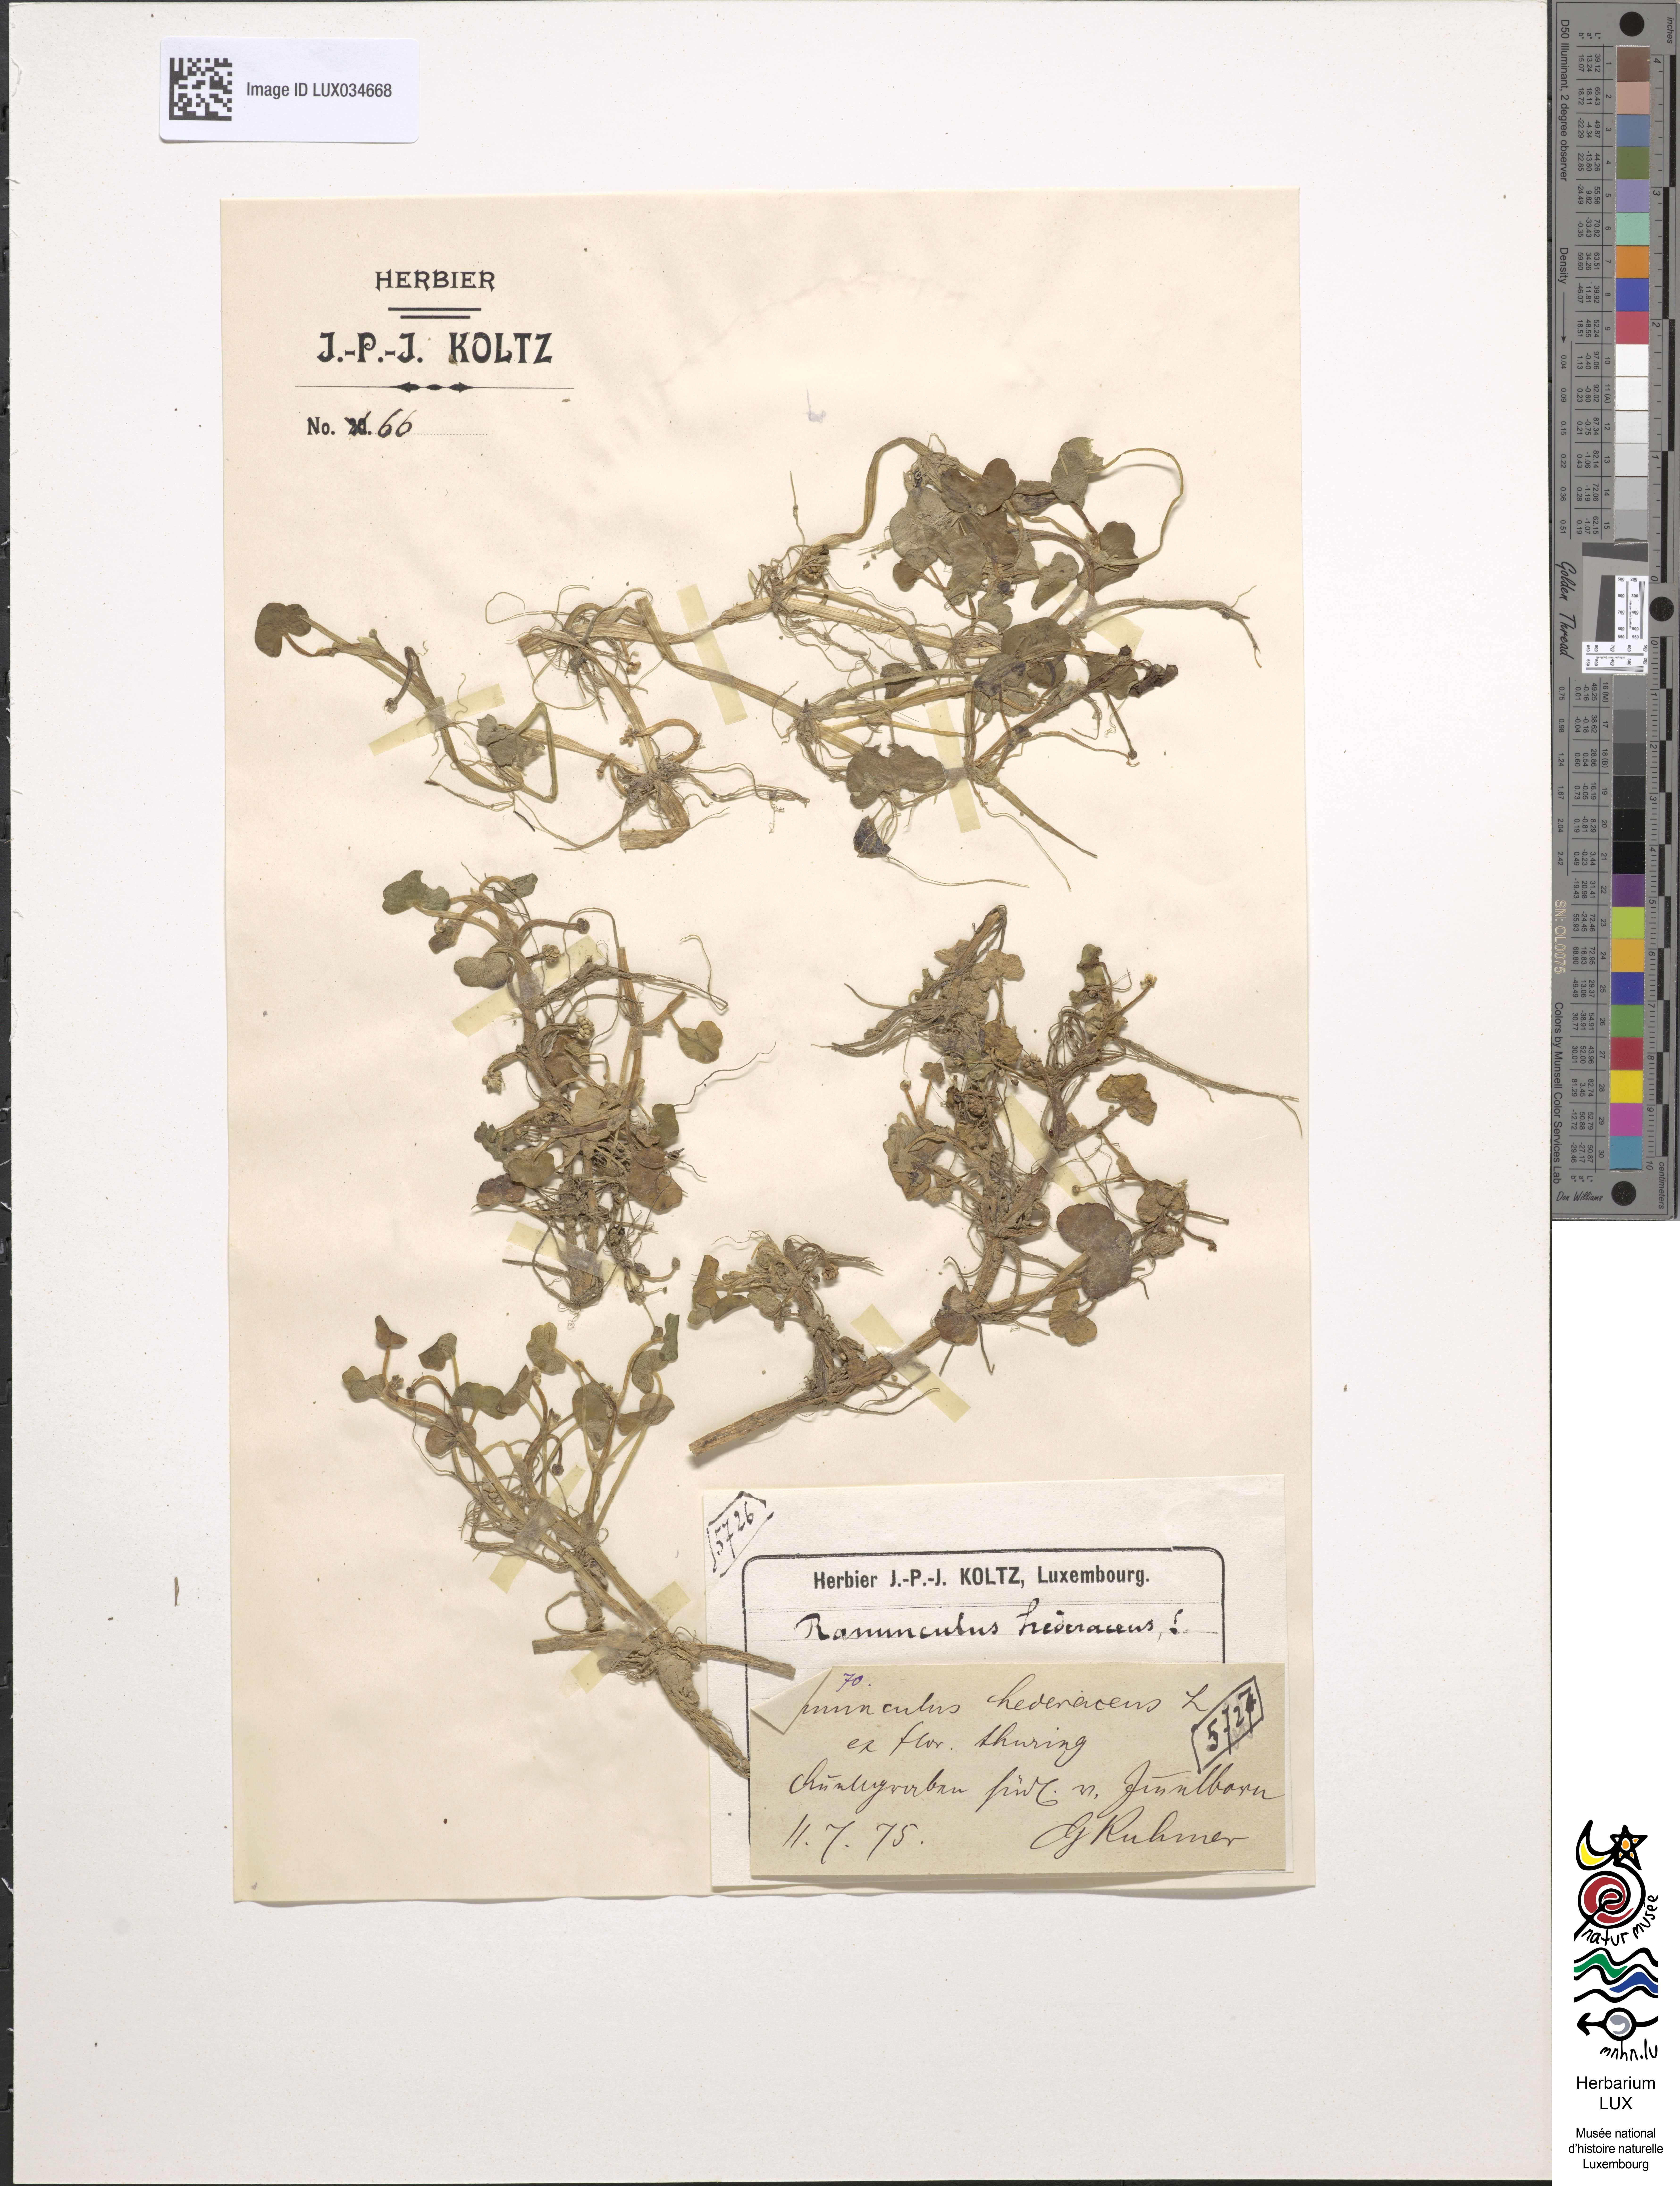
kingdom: Plantae
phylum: Tracheophyta
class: Magnoliopsida
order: Ranunculales
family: Ranunculaceae
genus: Ranunculus
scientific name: Ranunculus hederaceus
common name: Ivy-leaved crowfoot
